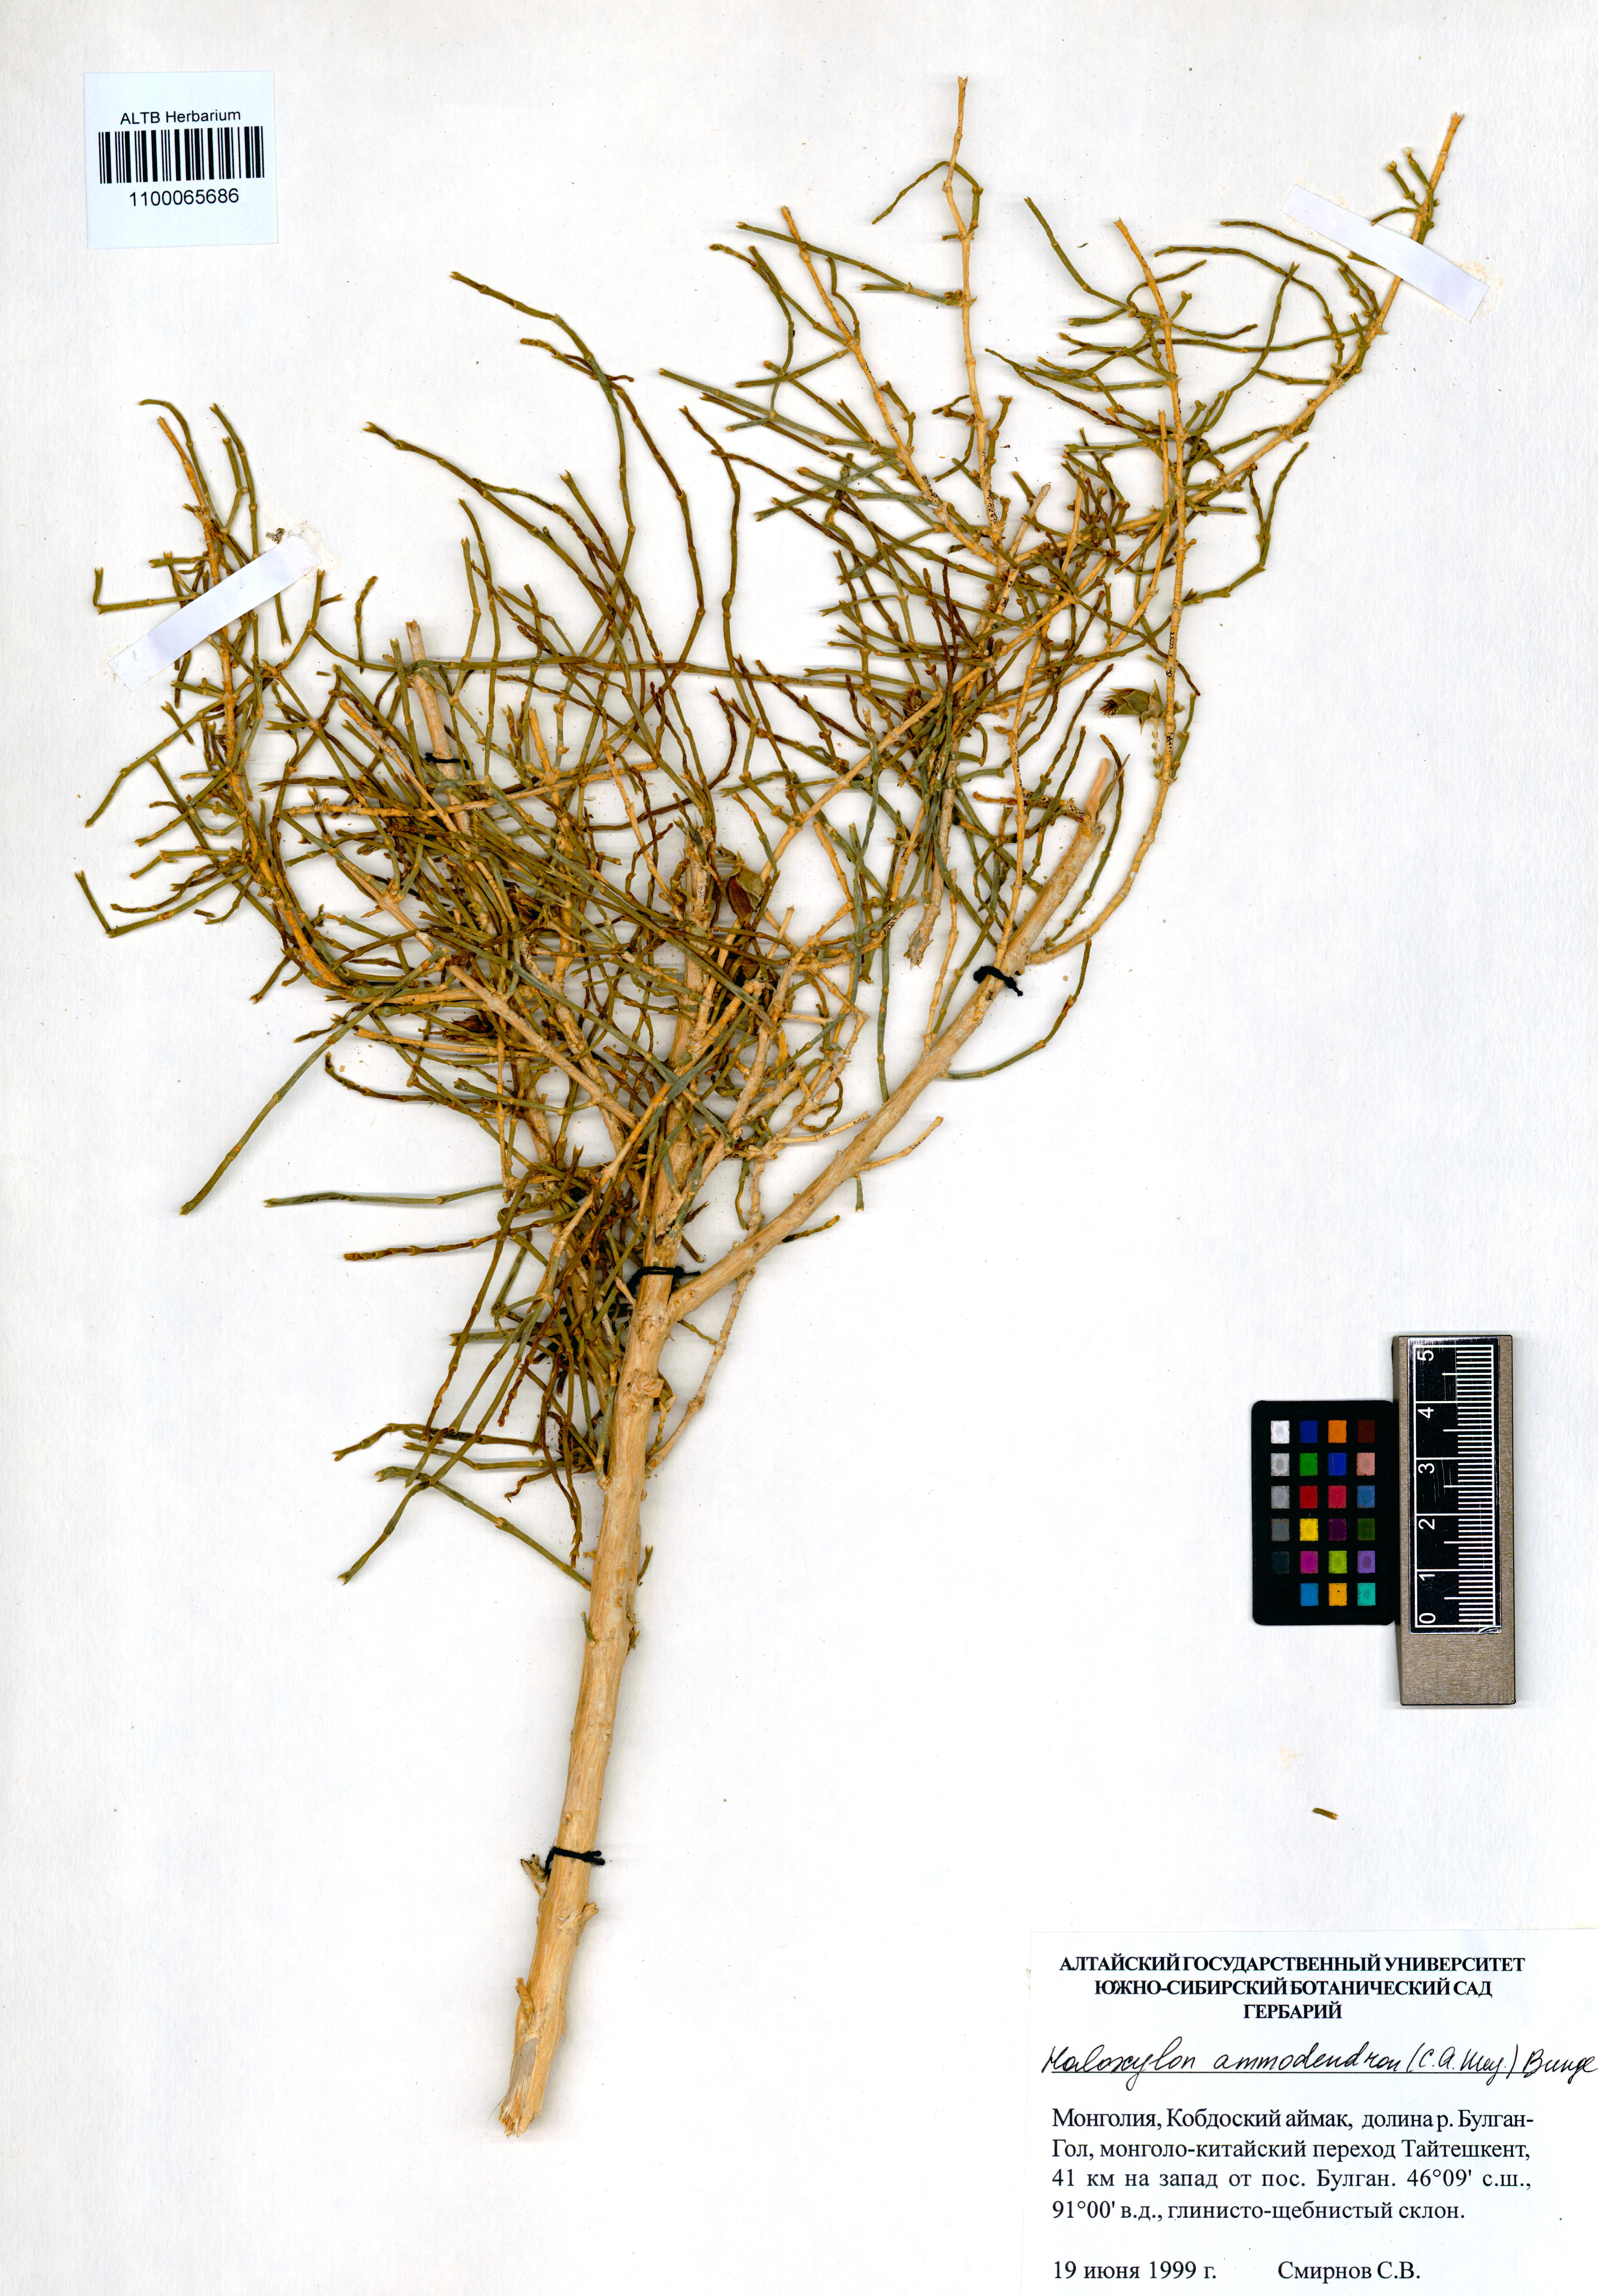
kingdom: Plantae
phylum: Tracheophyta
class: Magnoliopsida
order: Caryophyllales
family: Amaranthaceae
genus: Haloxylon
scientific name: Haloxylon ammodendron
